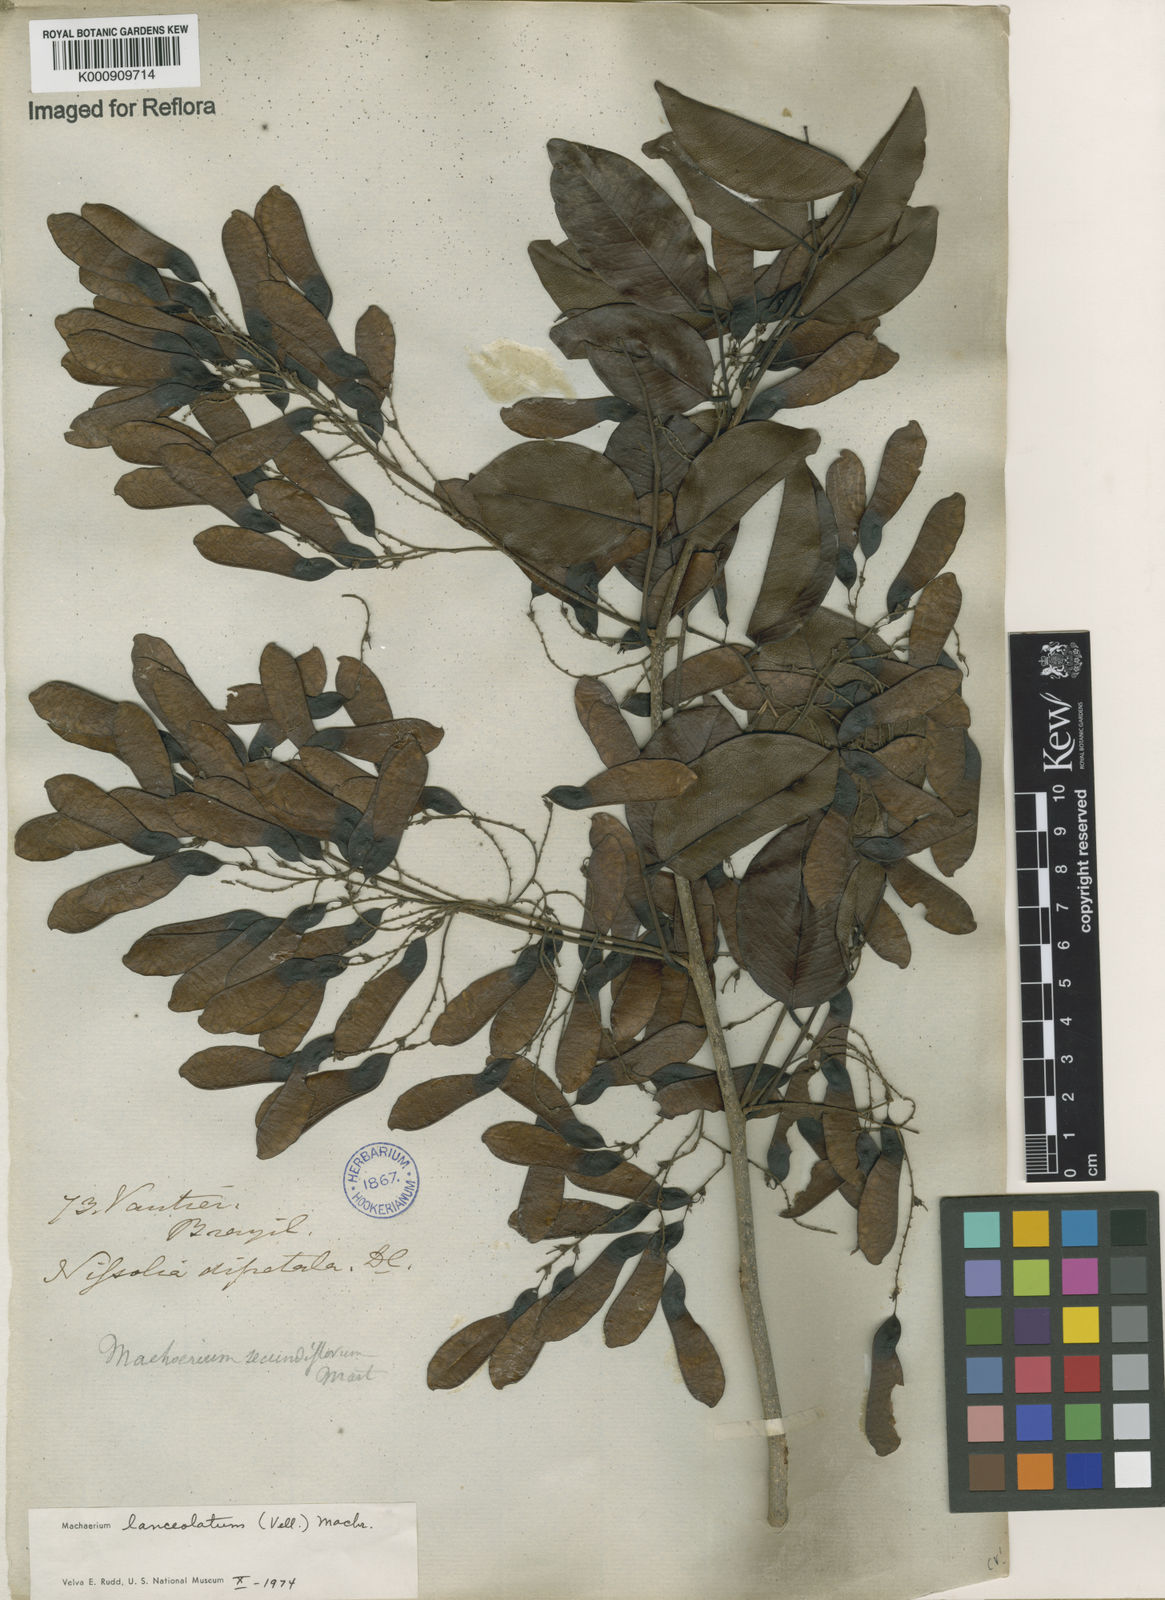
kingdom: Plantae
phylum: Tracheophyta
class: Magnoliopsida
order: Fabales
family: Fabaceae
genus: Machaerium
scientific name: Machaerium lanceolatum
